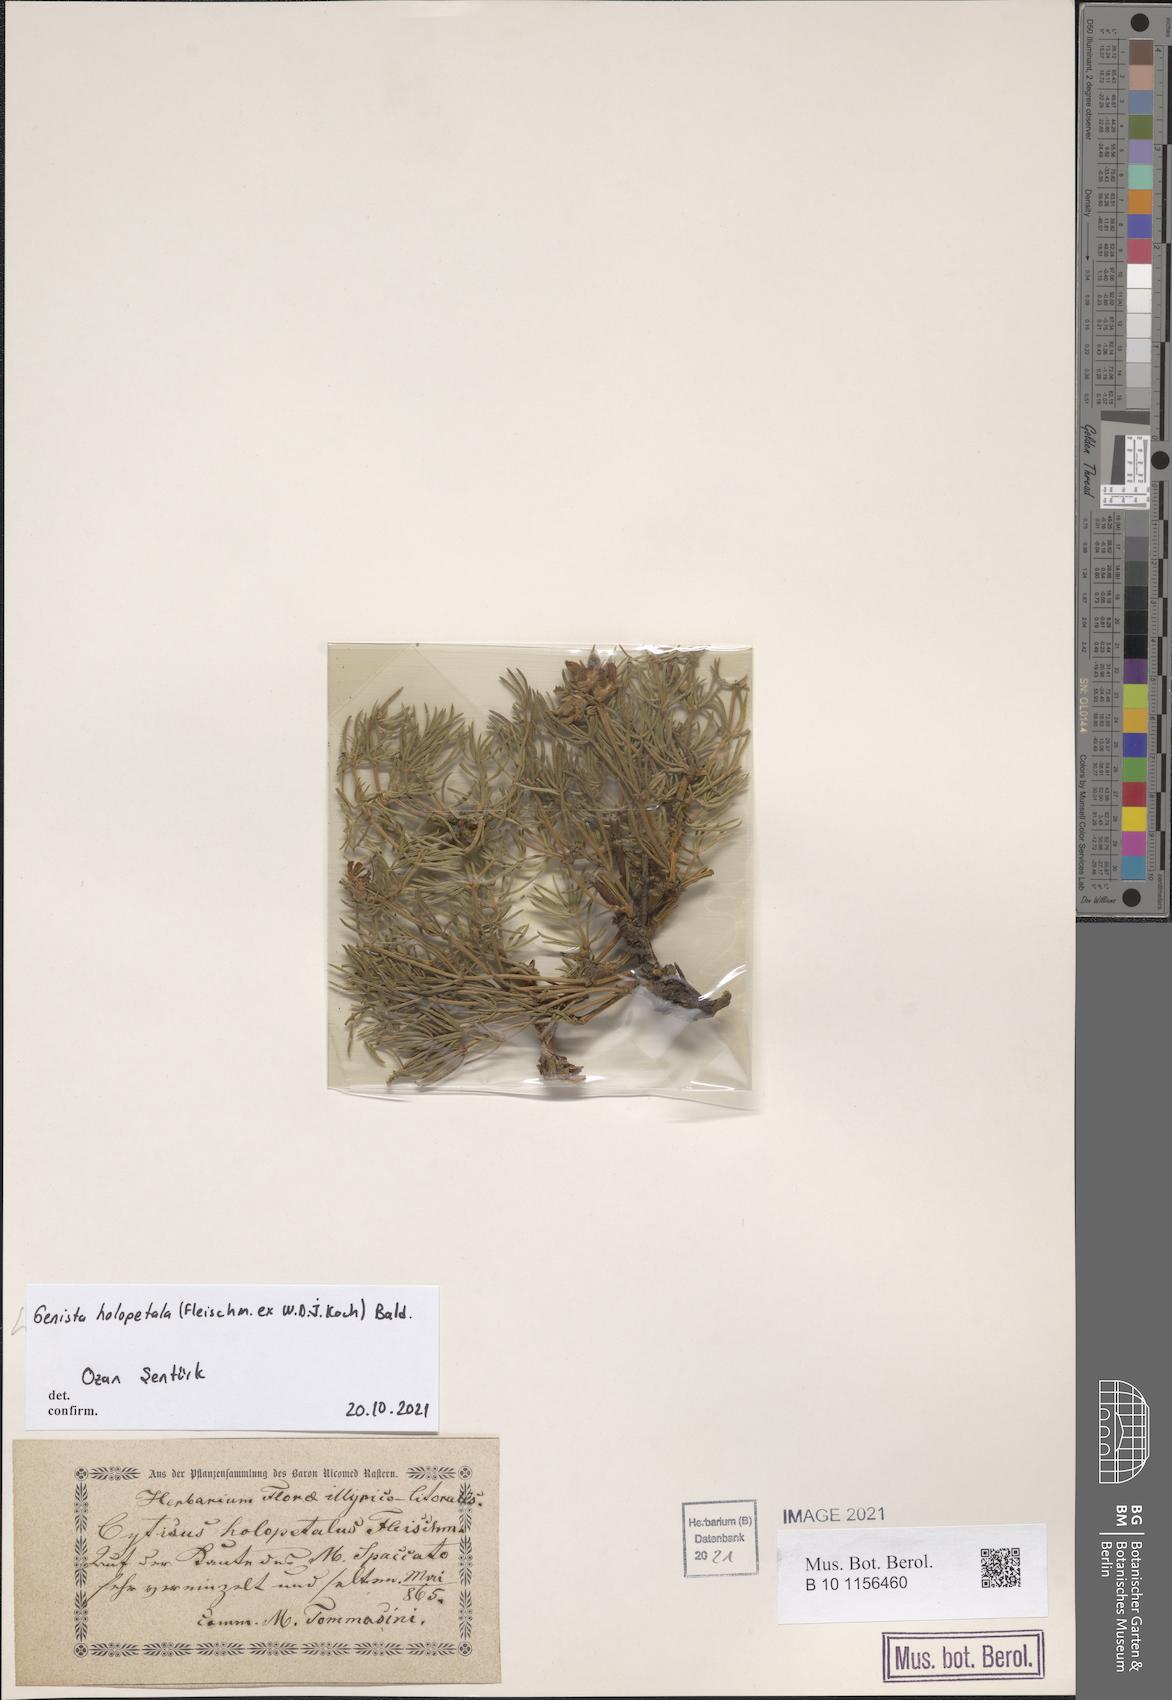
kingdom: Plantae
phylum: Tracheophyta
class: Magnoliopsida
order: Fabales
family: Fabaceae
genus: Genista
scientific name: Genista holopetala
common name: Entire-petalled gorse
